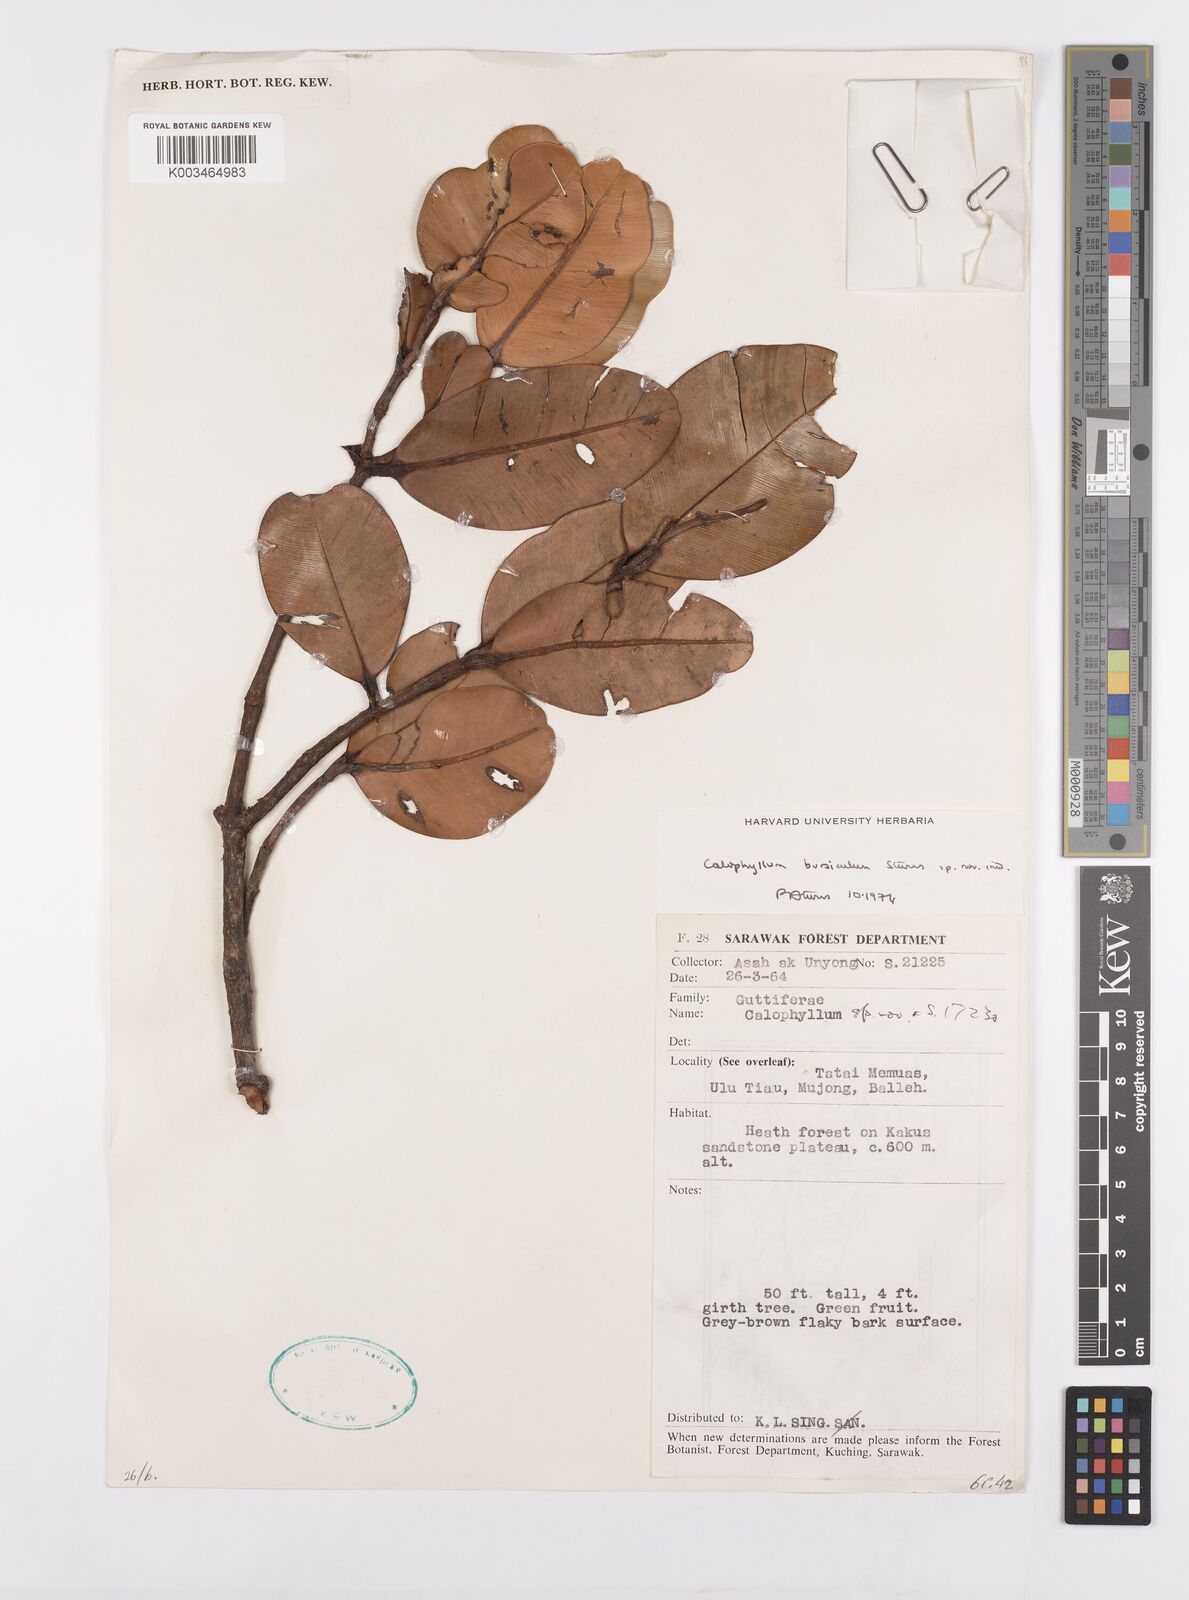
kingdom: Plantae
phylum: Tracheophyta
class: Magnoliopsida
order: Malpighiales
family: Calophyllaceae
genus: Calophyllum
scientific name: Calophyllum teysmannii
